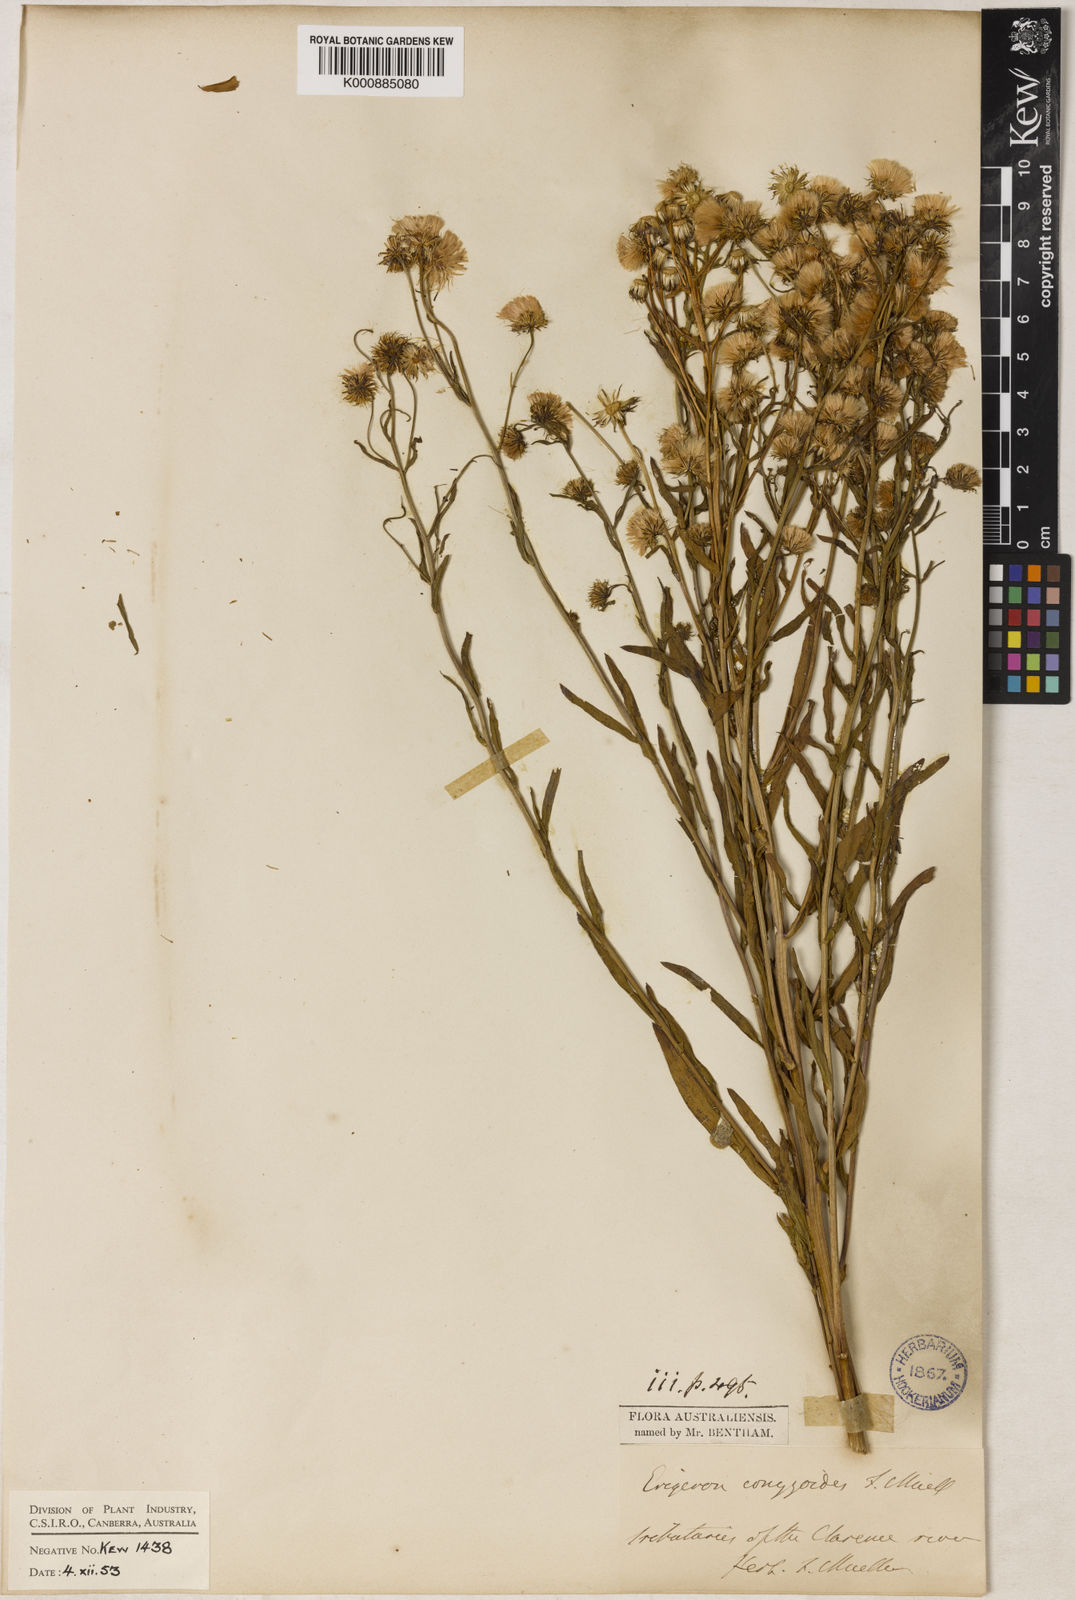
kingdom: Plantae
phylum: Tracheophyta
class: Magnoliopsida
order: Asterales
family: Asteraceae
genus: Erigeron
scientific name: Erigeron conyzoides
